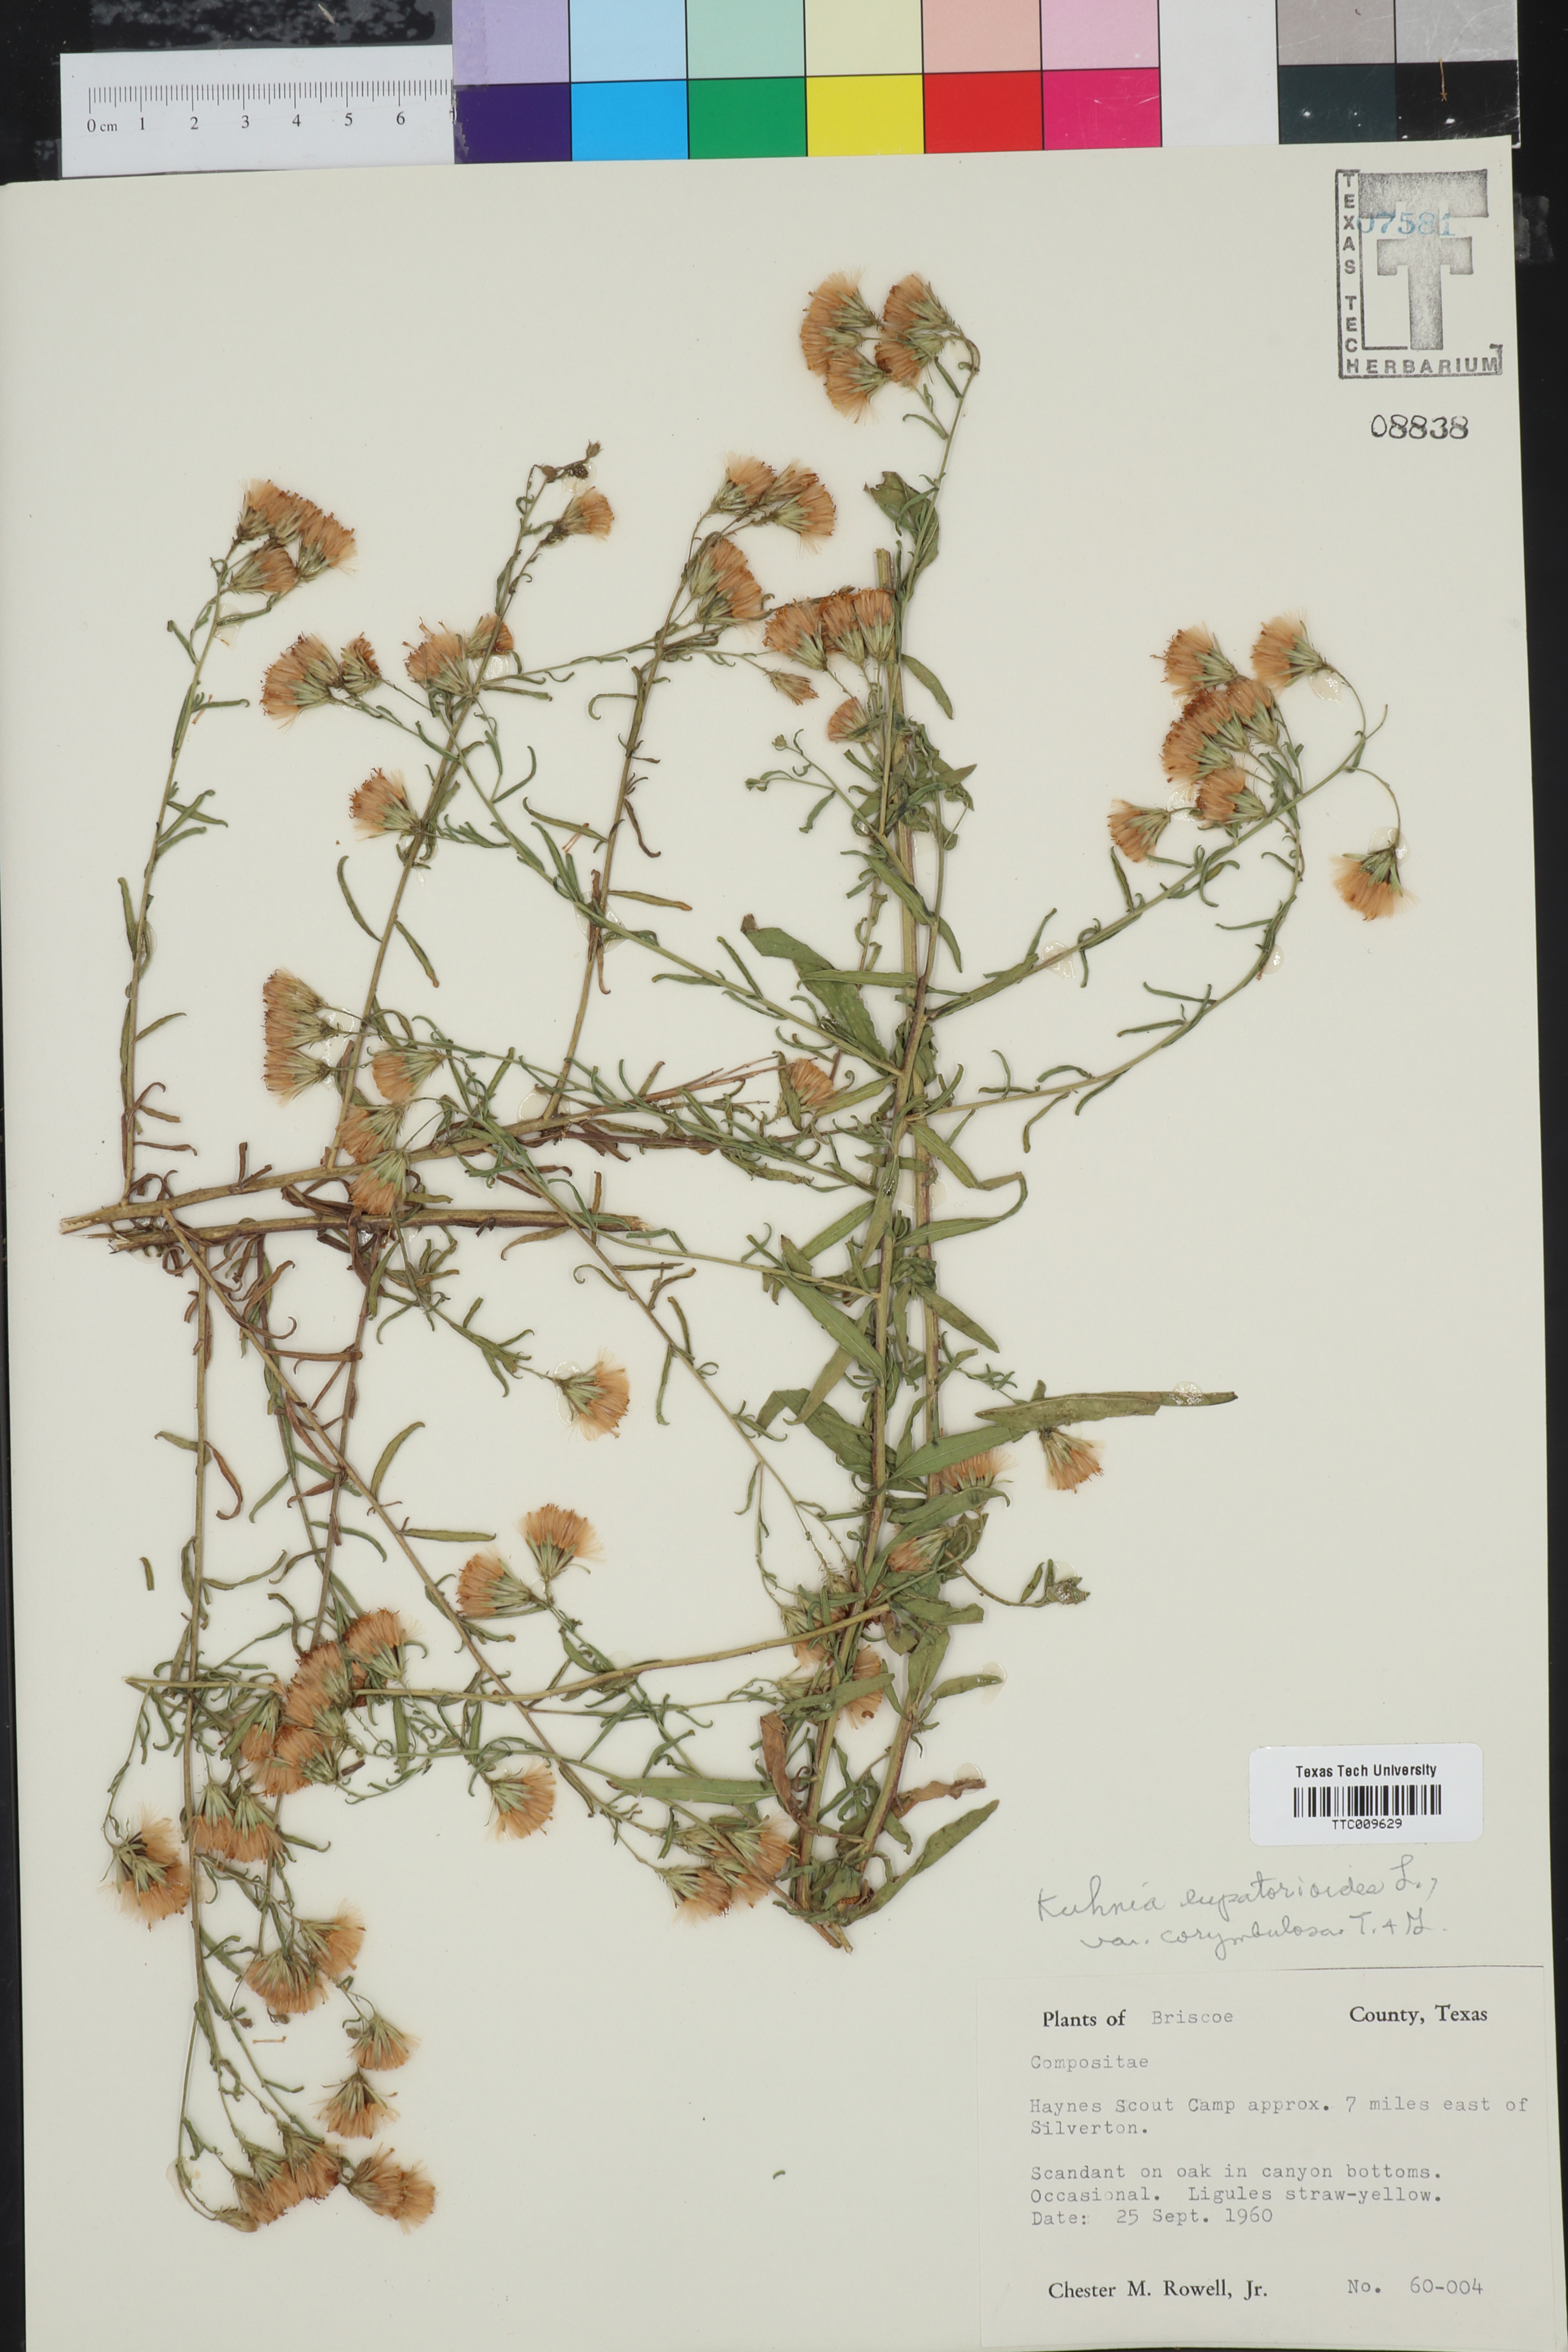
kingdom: Plantae
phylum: Tracheophyta
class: Magnoliopsida
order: Asterales
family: Asteraceae
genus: Brickellia
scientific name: Brickellia suaveolens
